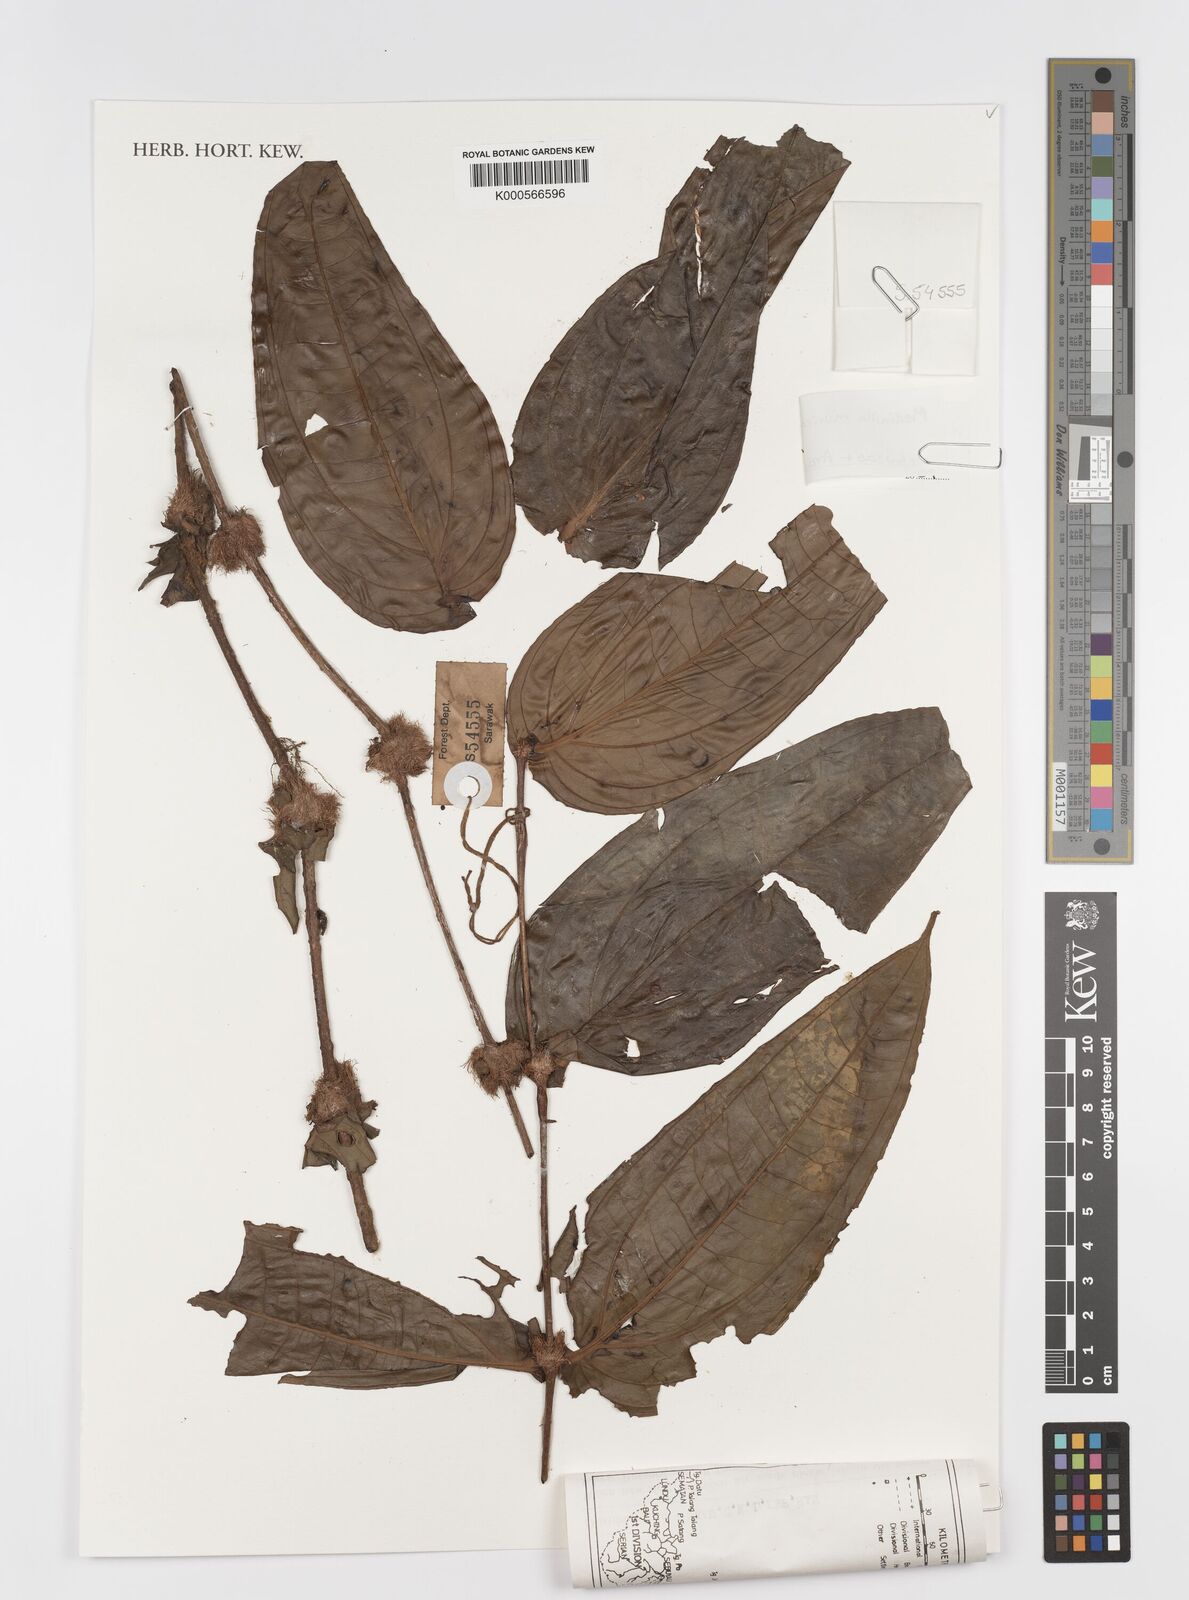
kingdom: Plantae
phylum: Tracheophyta
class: Magnoliopsida
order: Myrtales
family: Melastomataceae
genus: Medinilla
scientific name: Medinilla muricata
